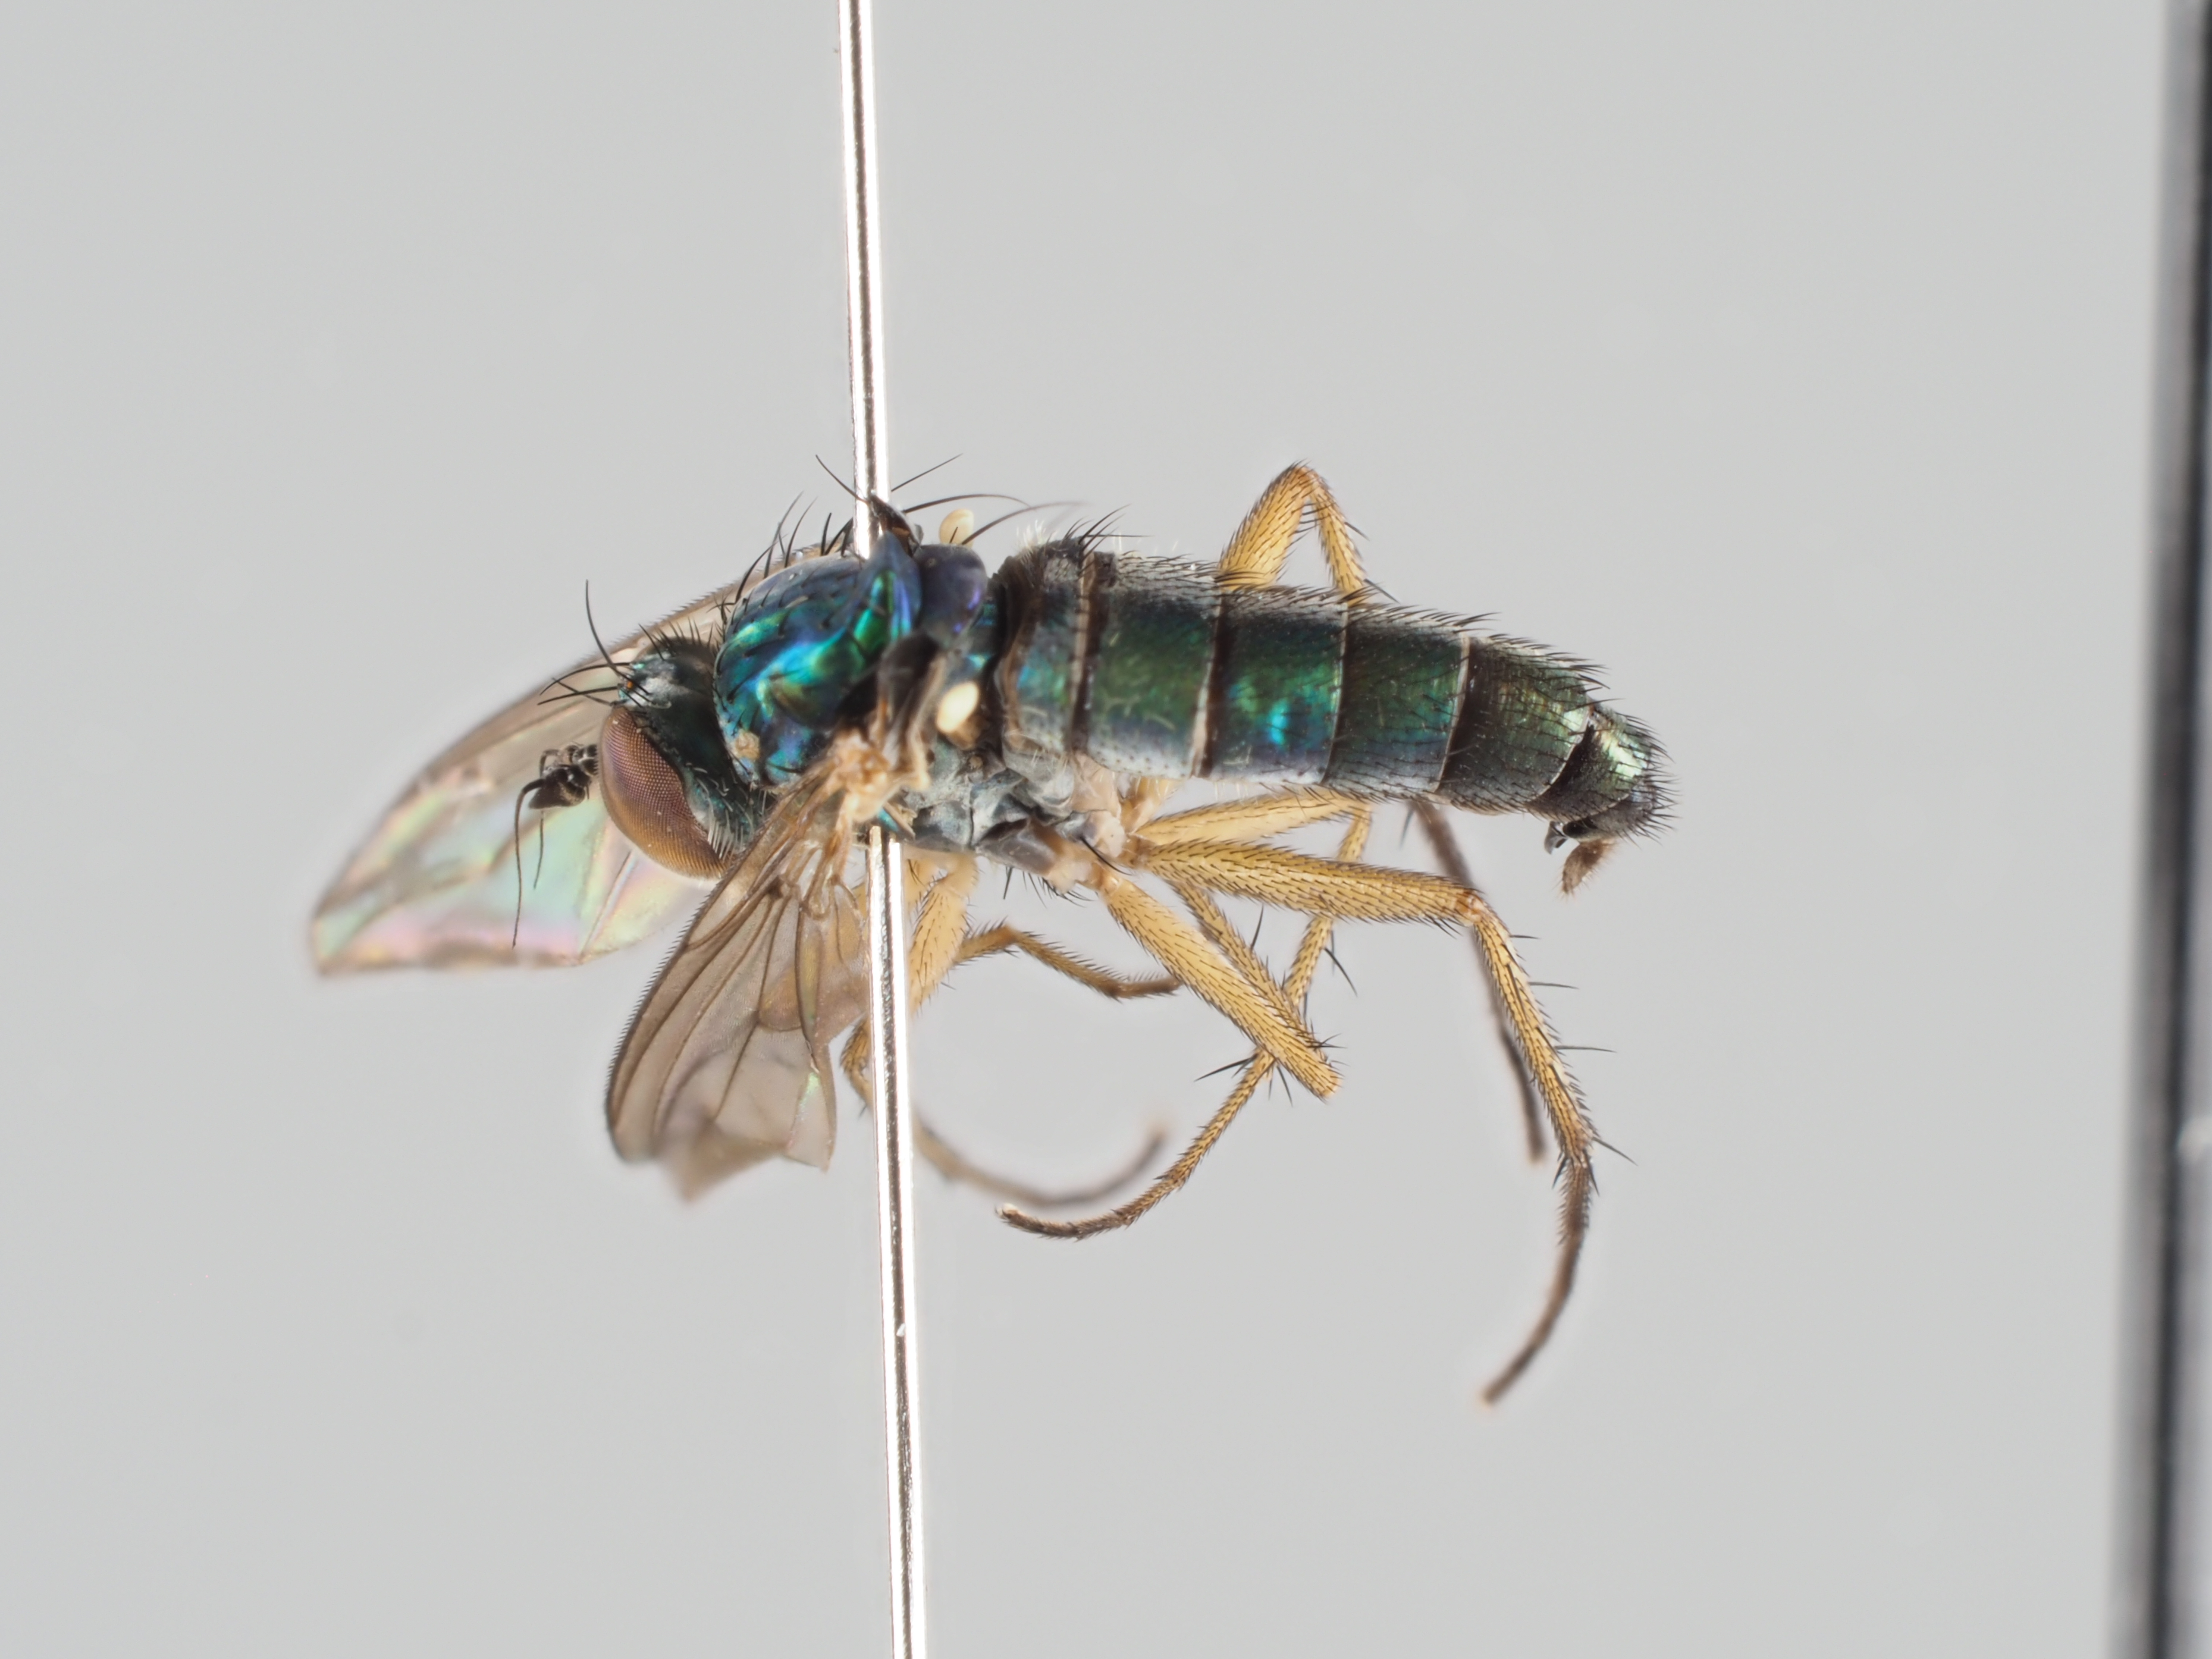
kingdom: Animalia
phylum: Arthropoda
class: Insecta
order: Diptera
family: Dolichopodidae
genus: Nematoproctus
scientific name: Nematoproctus praesectus
